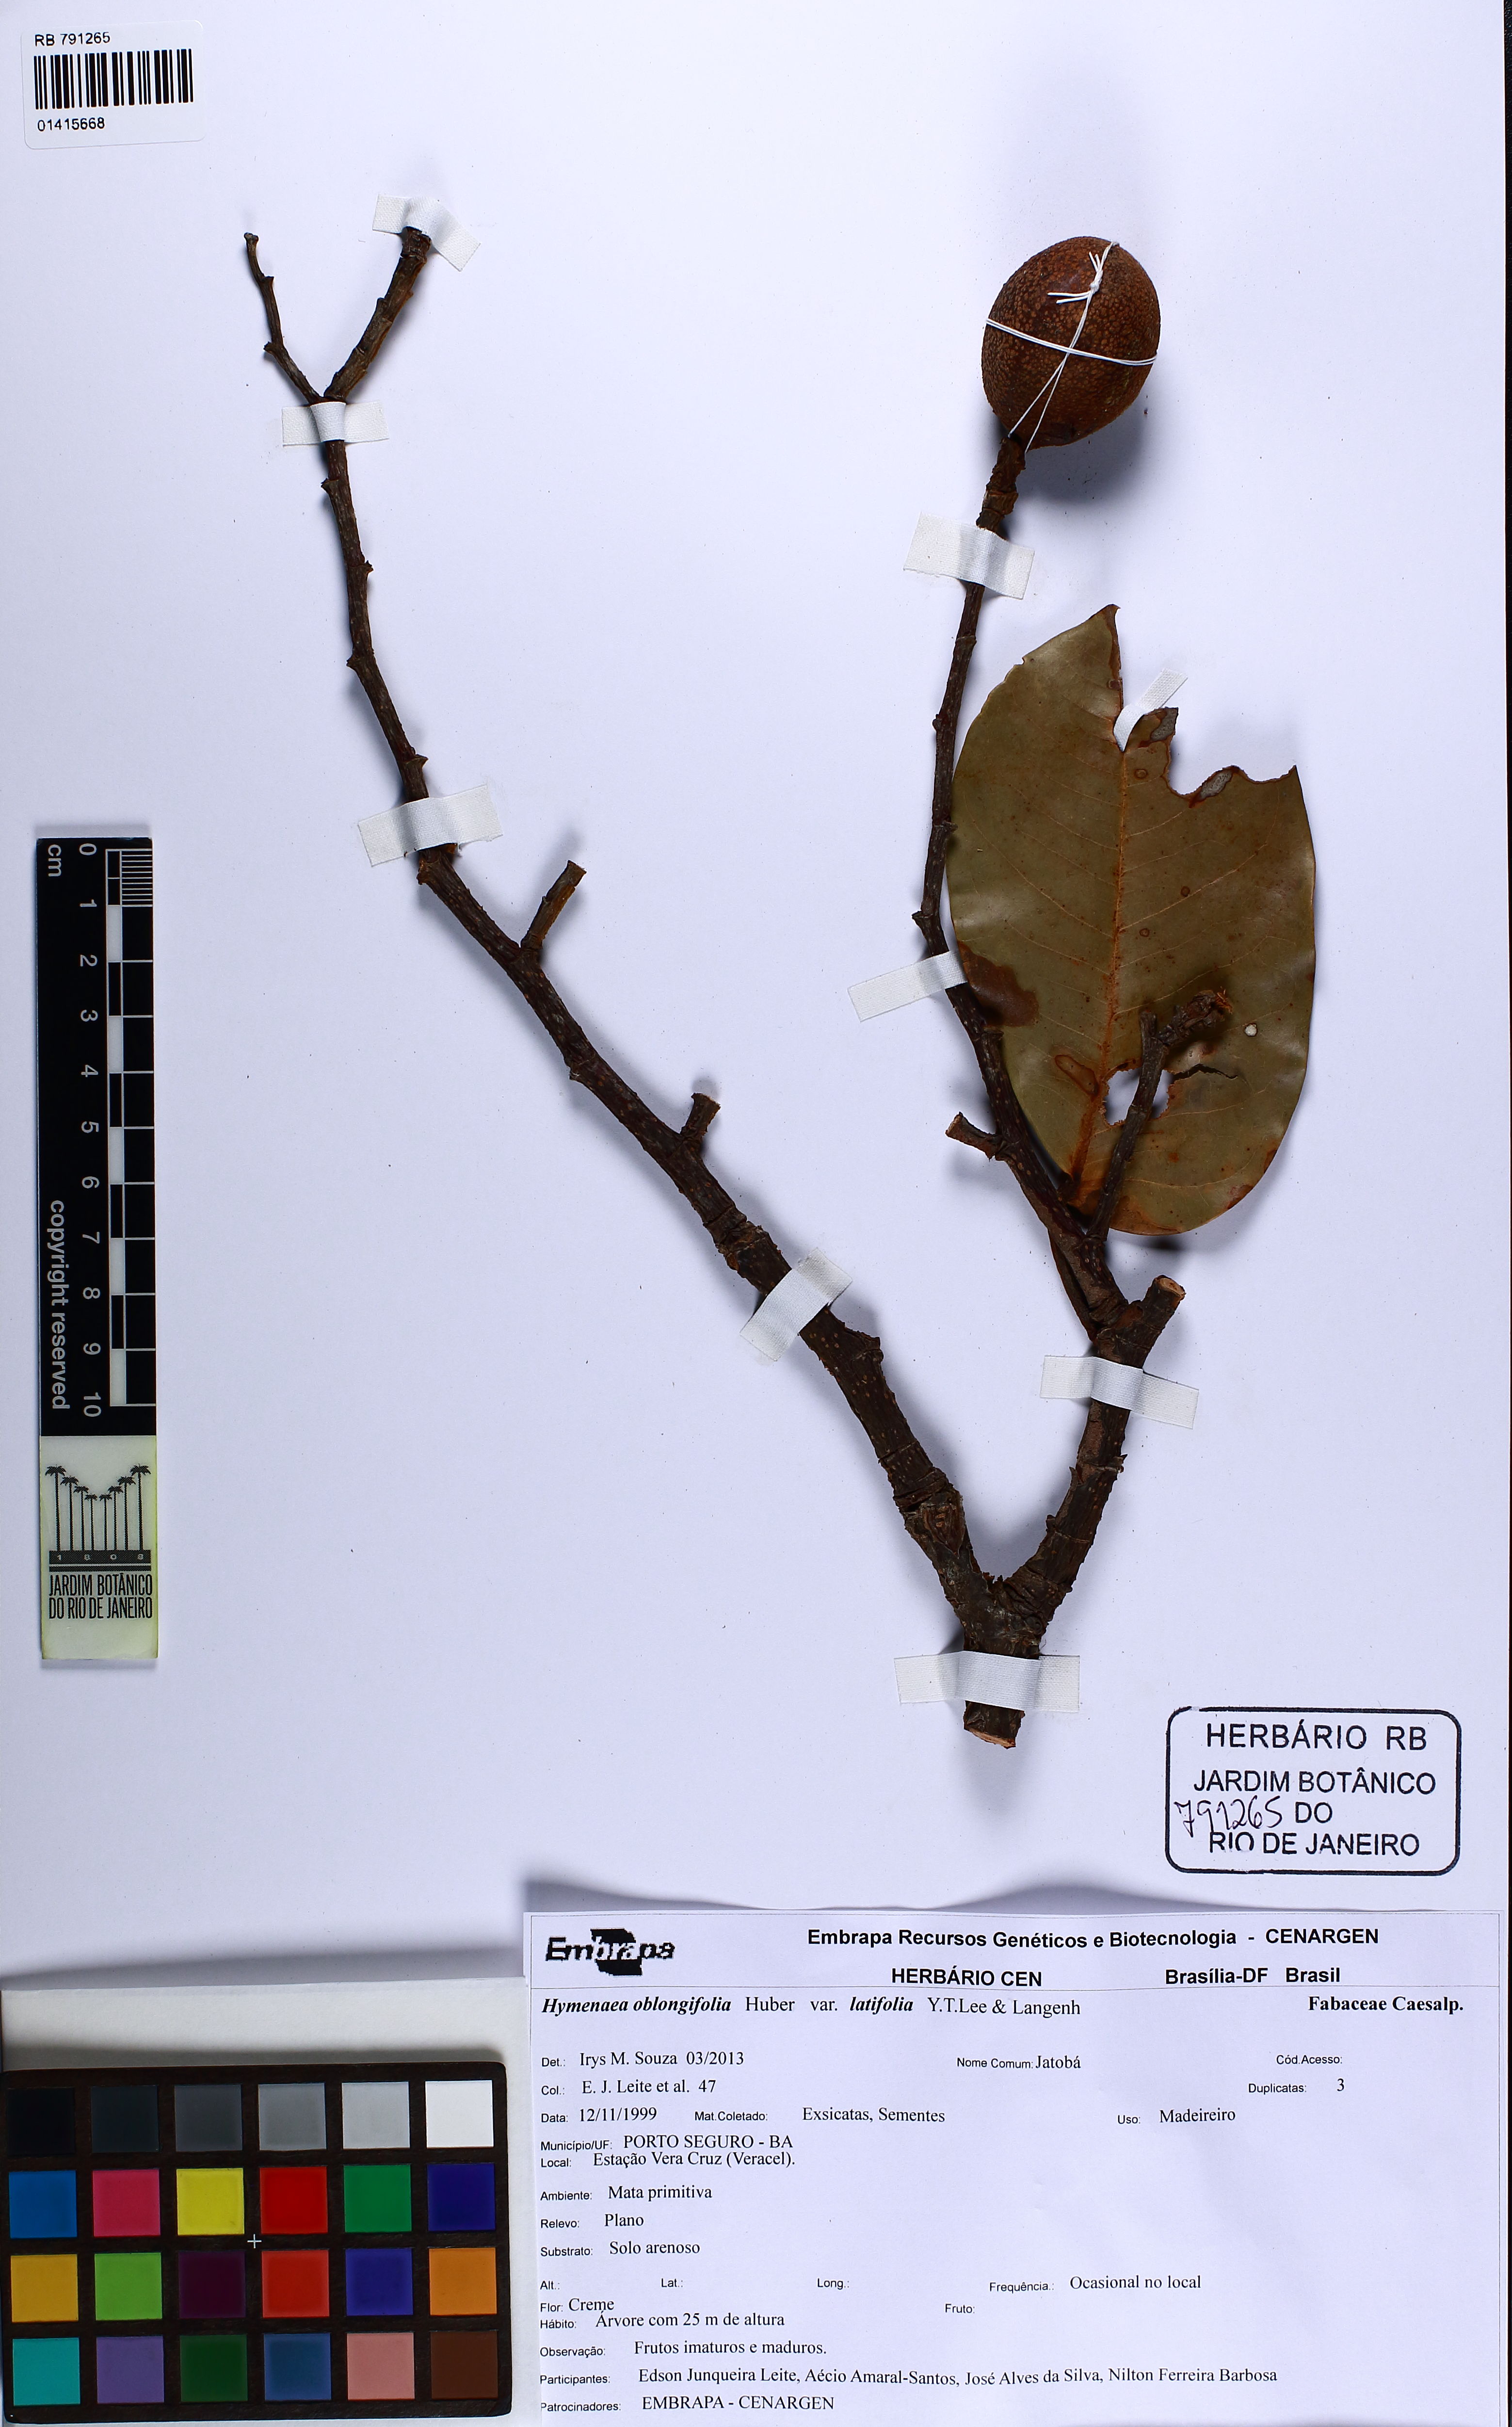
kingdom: Plantae
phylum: Tracheophyta
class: Magnoliopsida
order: Fabales
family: Fabaceae
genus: Hymenaea
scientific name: Hymenaea oblongifolia
